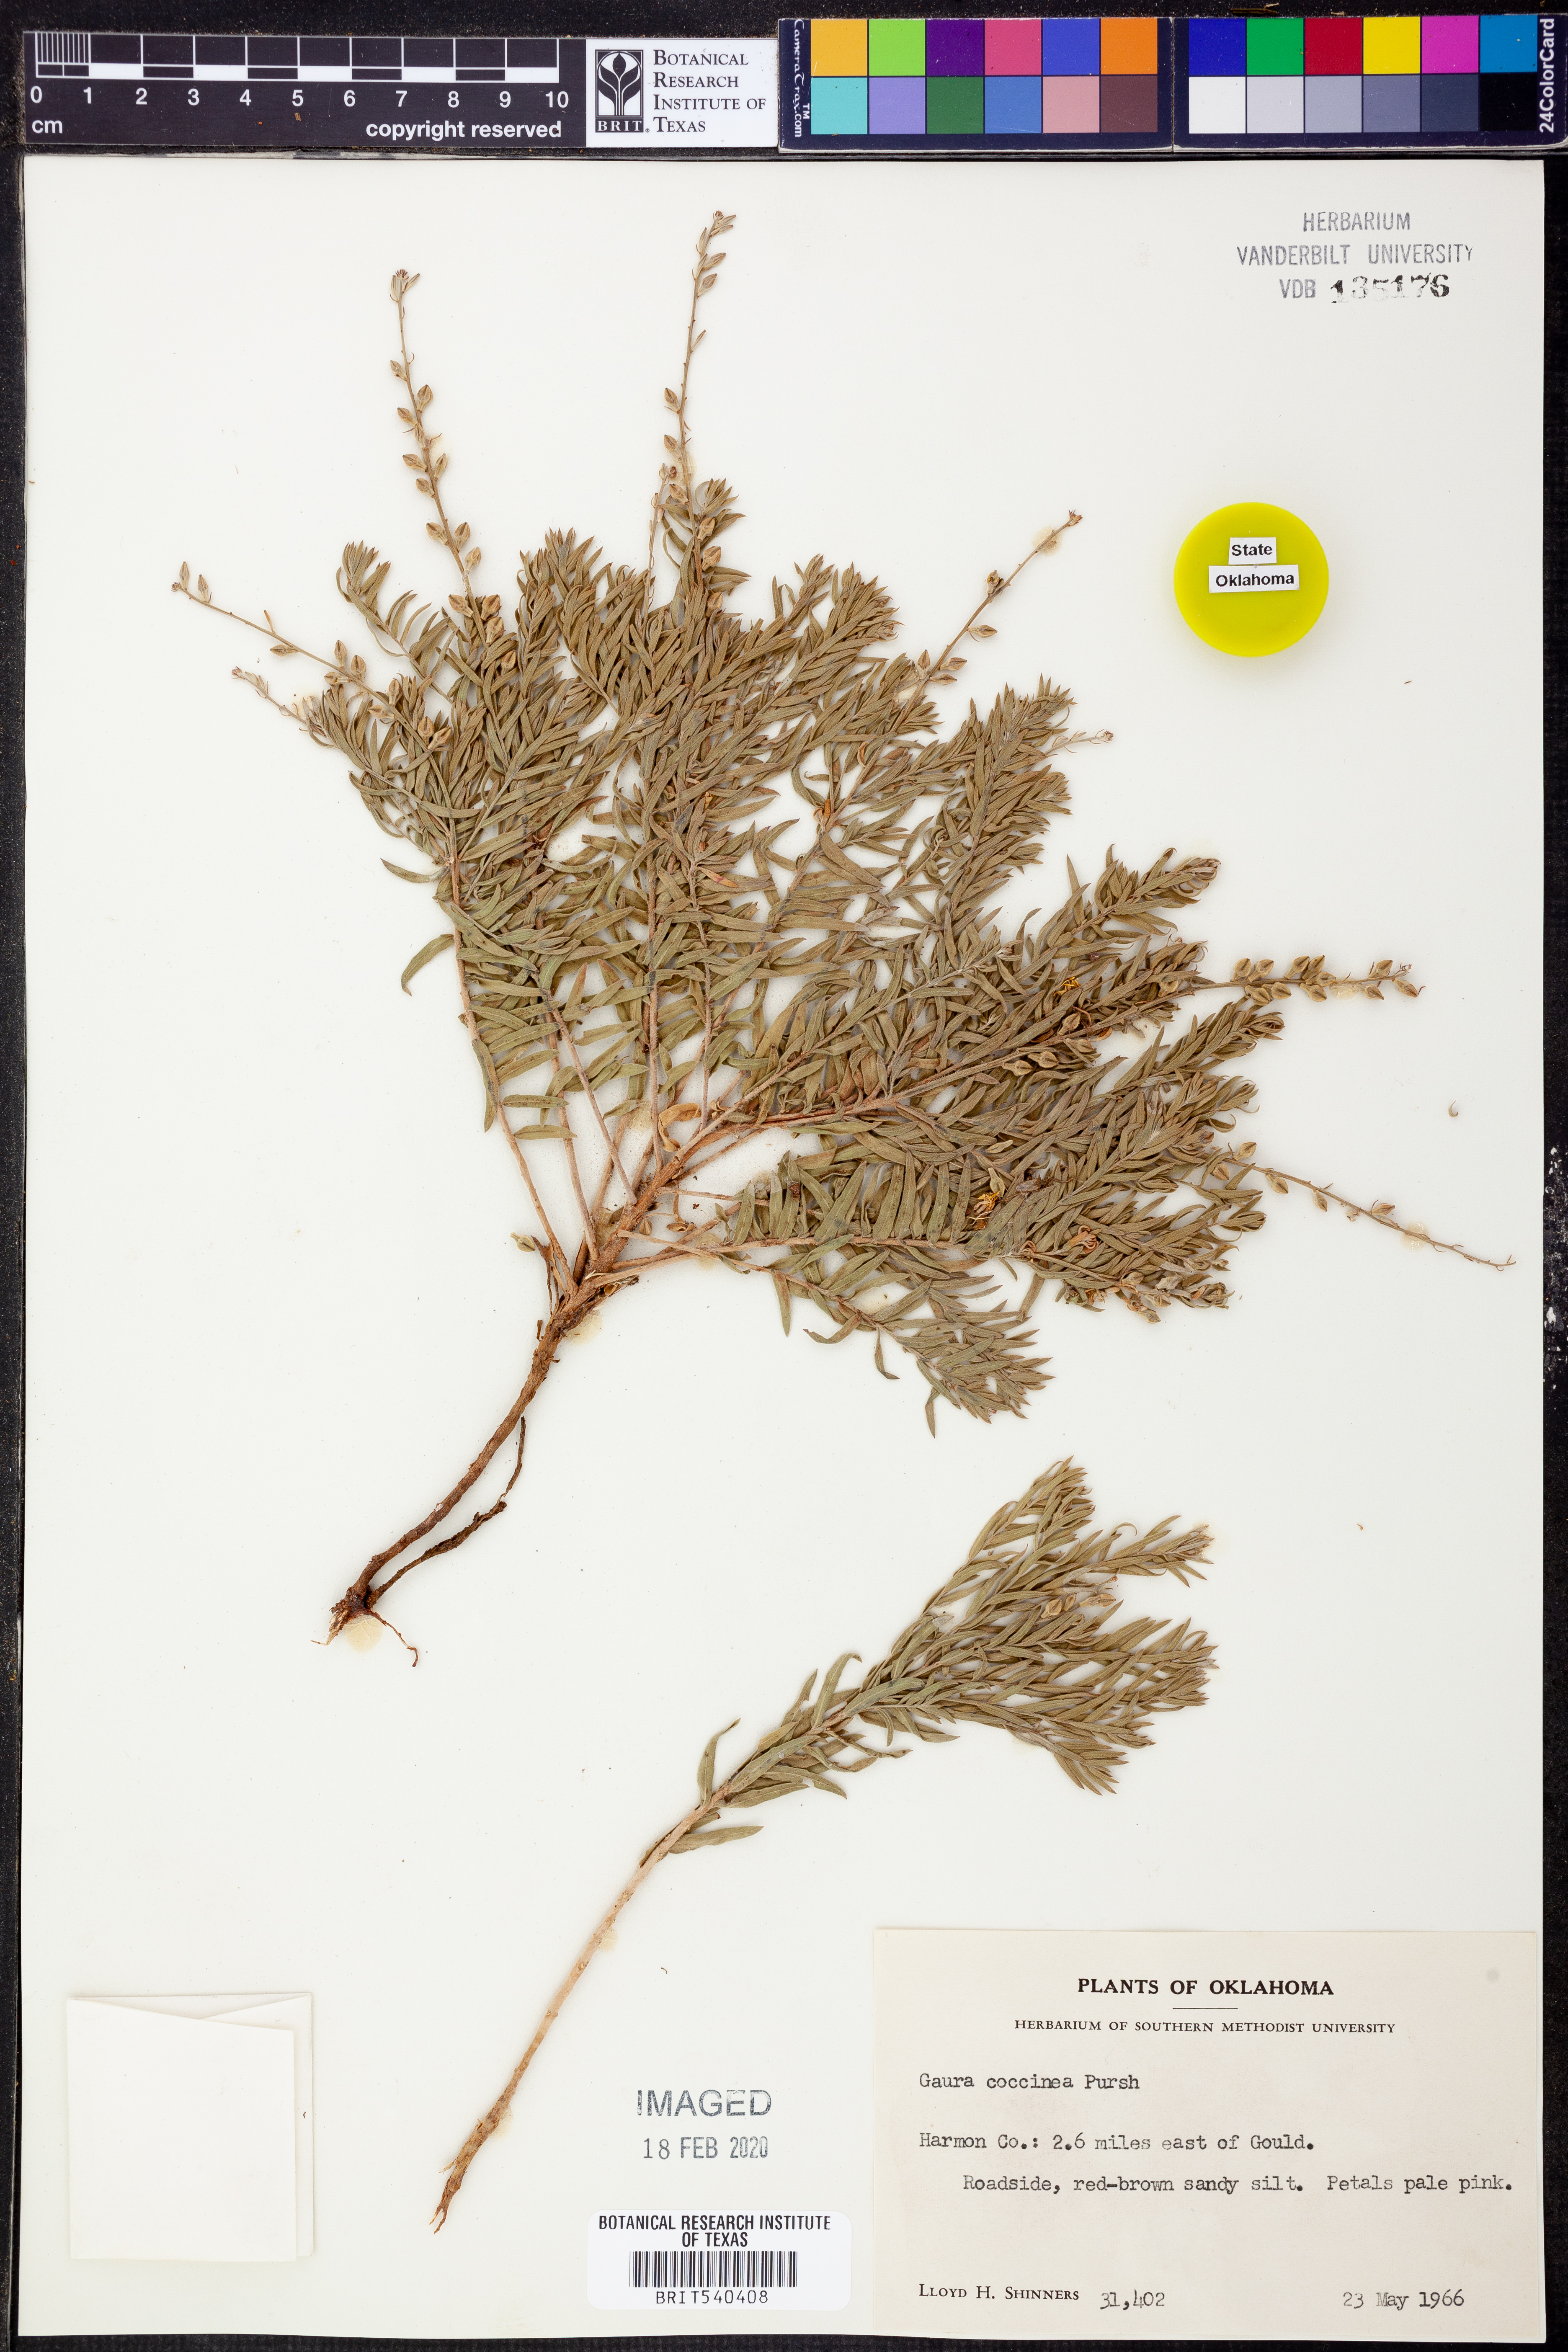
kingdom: Plantae
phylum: Tracheophyta
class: Magnoliopsida
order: Myrtales
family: Onagraceae
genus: Oenothera
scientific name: Oenothera suffrutescens
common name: Scarlet beeblossom
